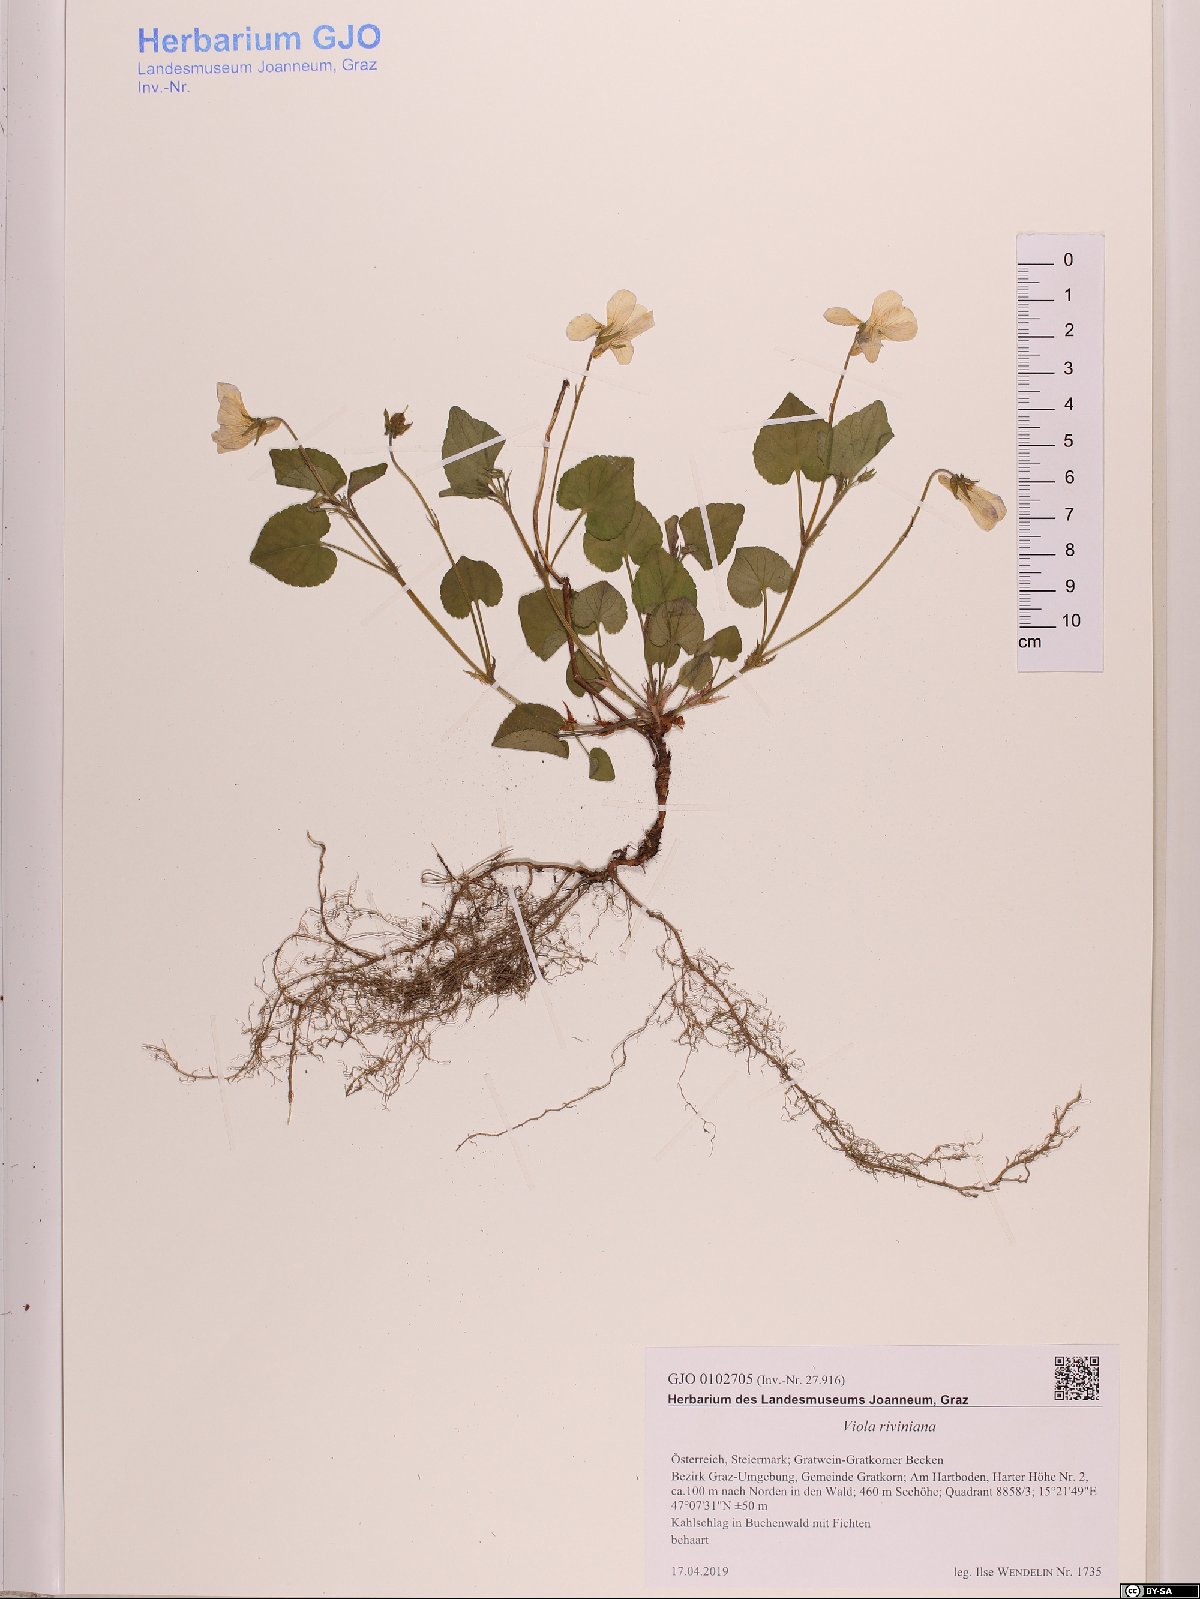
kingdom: Plantae
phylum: Tracheophyta
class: Magnoliopsida
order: Malpighiales
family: Violaceae
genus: Viola
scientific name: Viola riviniana
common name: Common dog-violet
